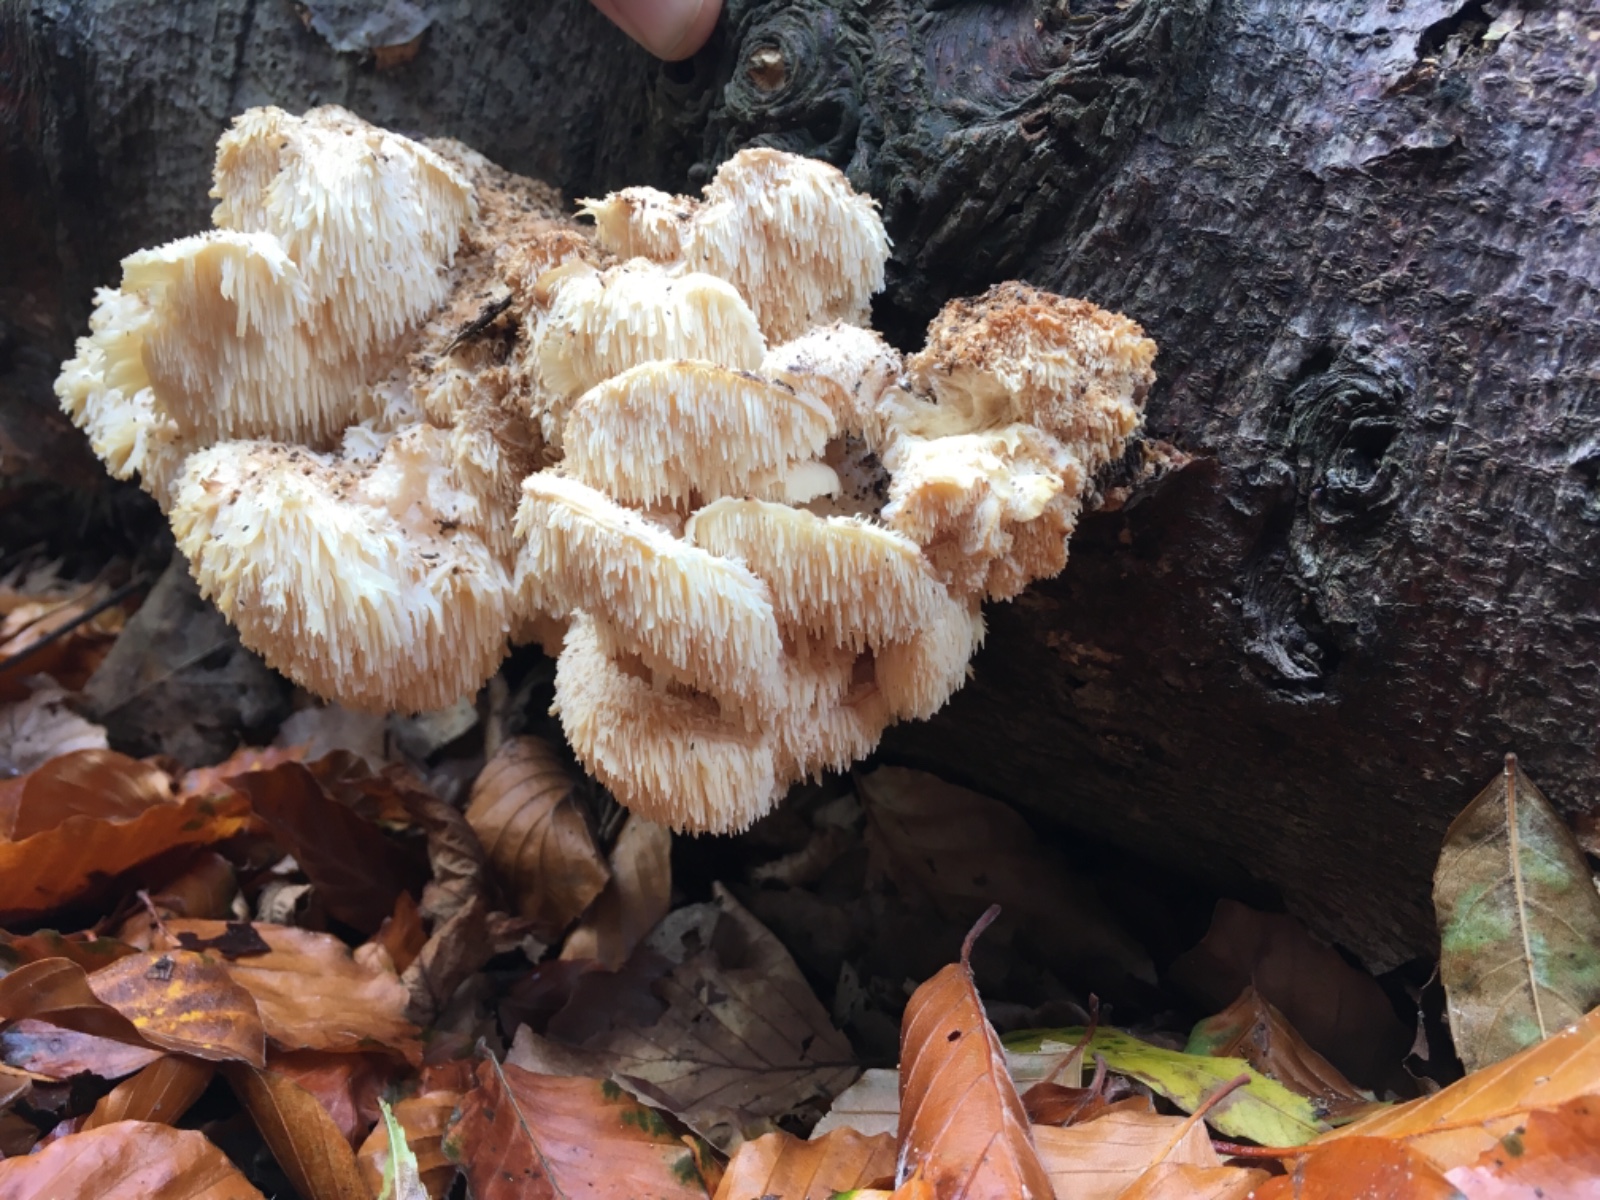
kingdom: Fungi
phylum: Basidiomycota
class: Agaricomycetes
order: Russulales
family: Hericiaceae
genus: Hericium
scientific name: Hericium cirrhatum
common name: børstepigsvamp
